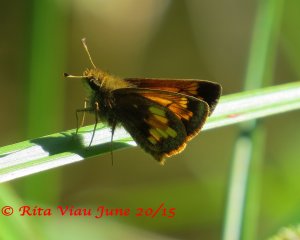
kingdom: Animalia
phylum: Arthropoda
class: Insecta
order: Lepidoptera
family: Hesperiidae
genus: Lon
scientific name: Lon hobomok
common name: Hobomok Skipper
